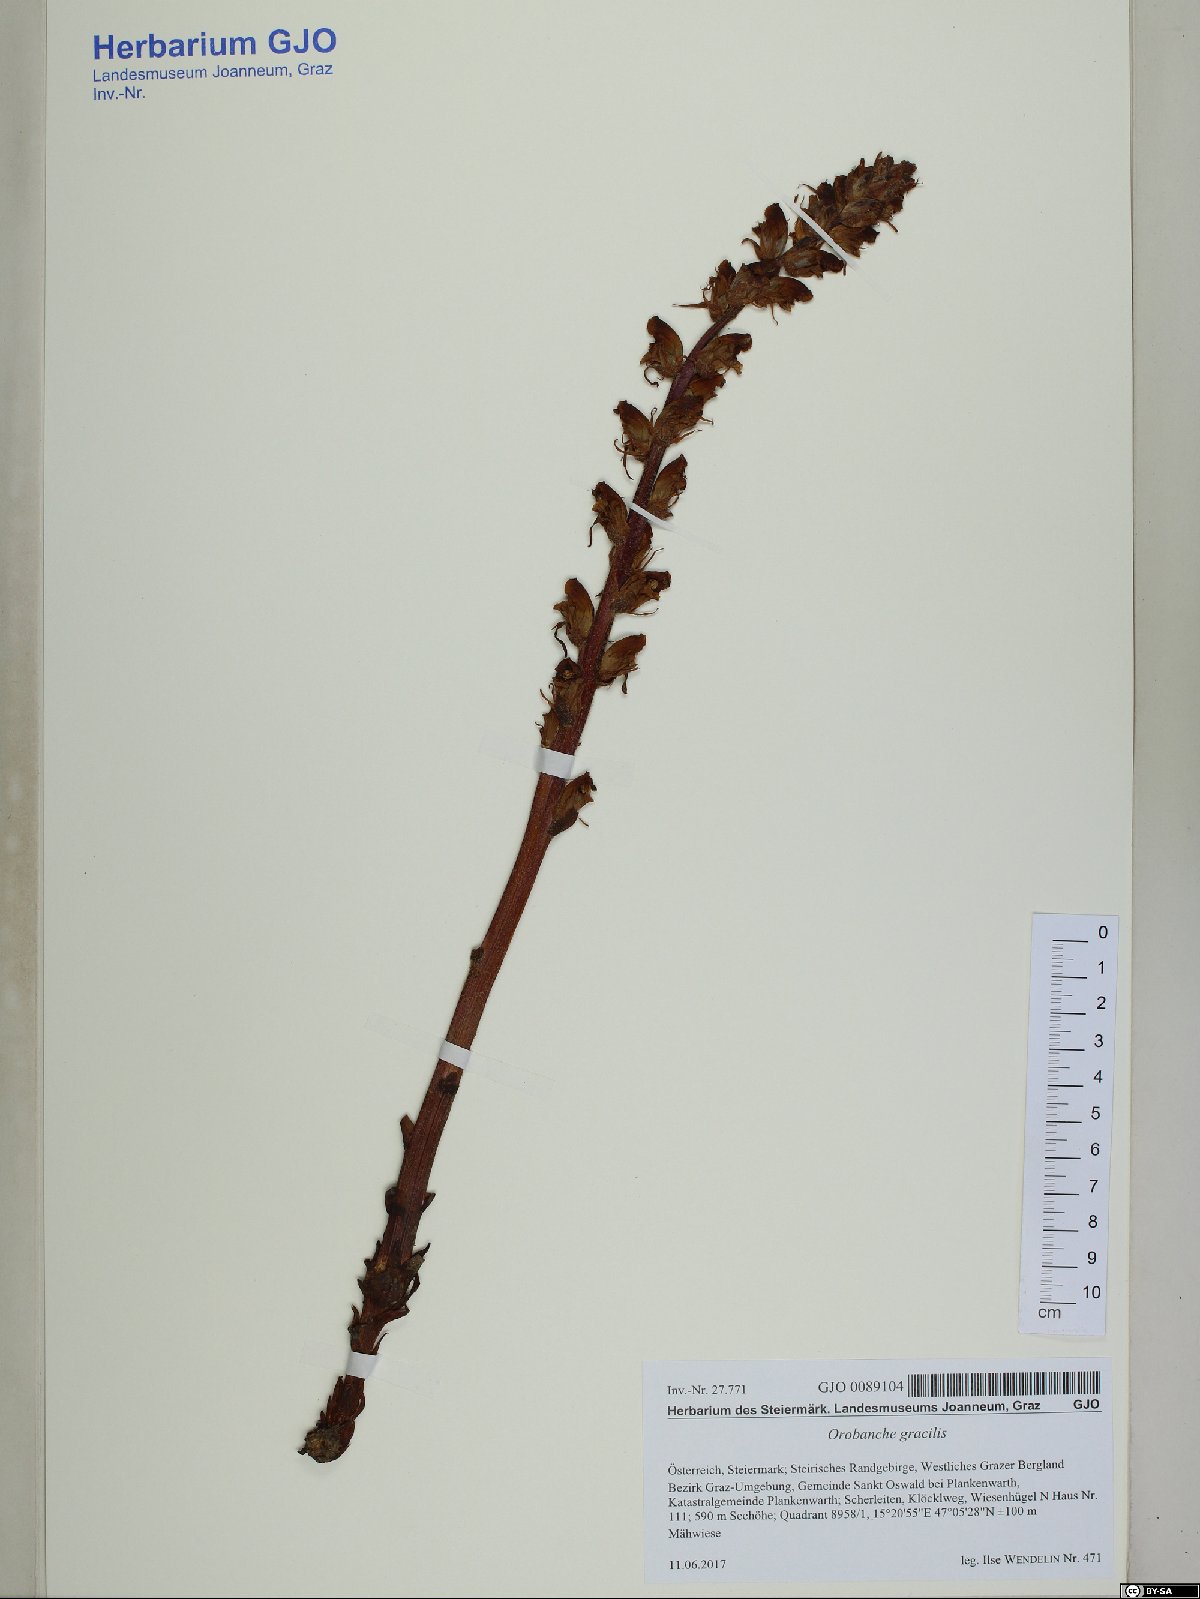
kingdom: Plantae
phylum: Tracheophyta
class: Magnoliopsida
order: Lamiales
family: Orobanchaceae
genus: Orobanche
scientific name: Orobanche gracilis
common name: Slender broomrape
